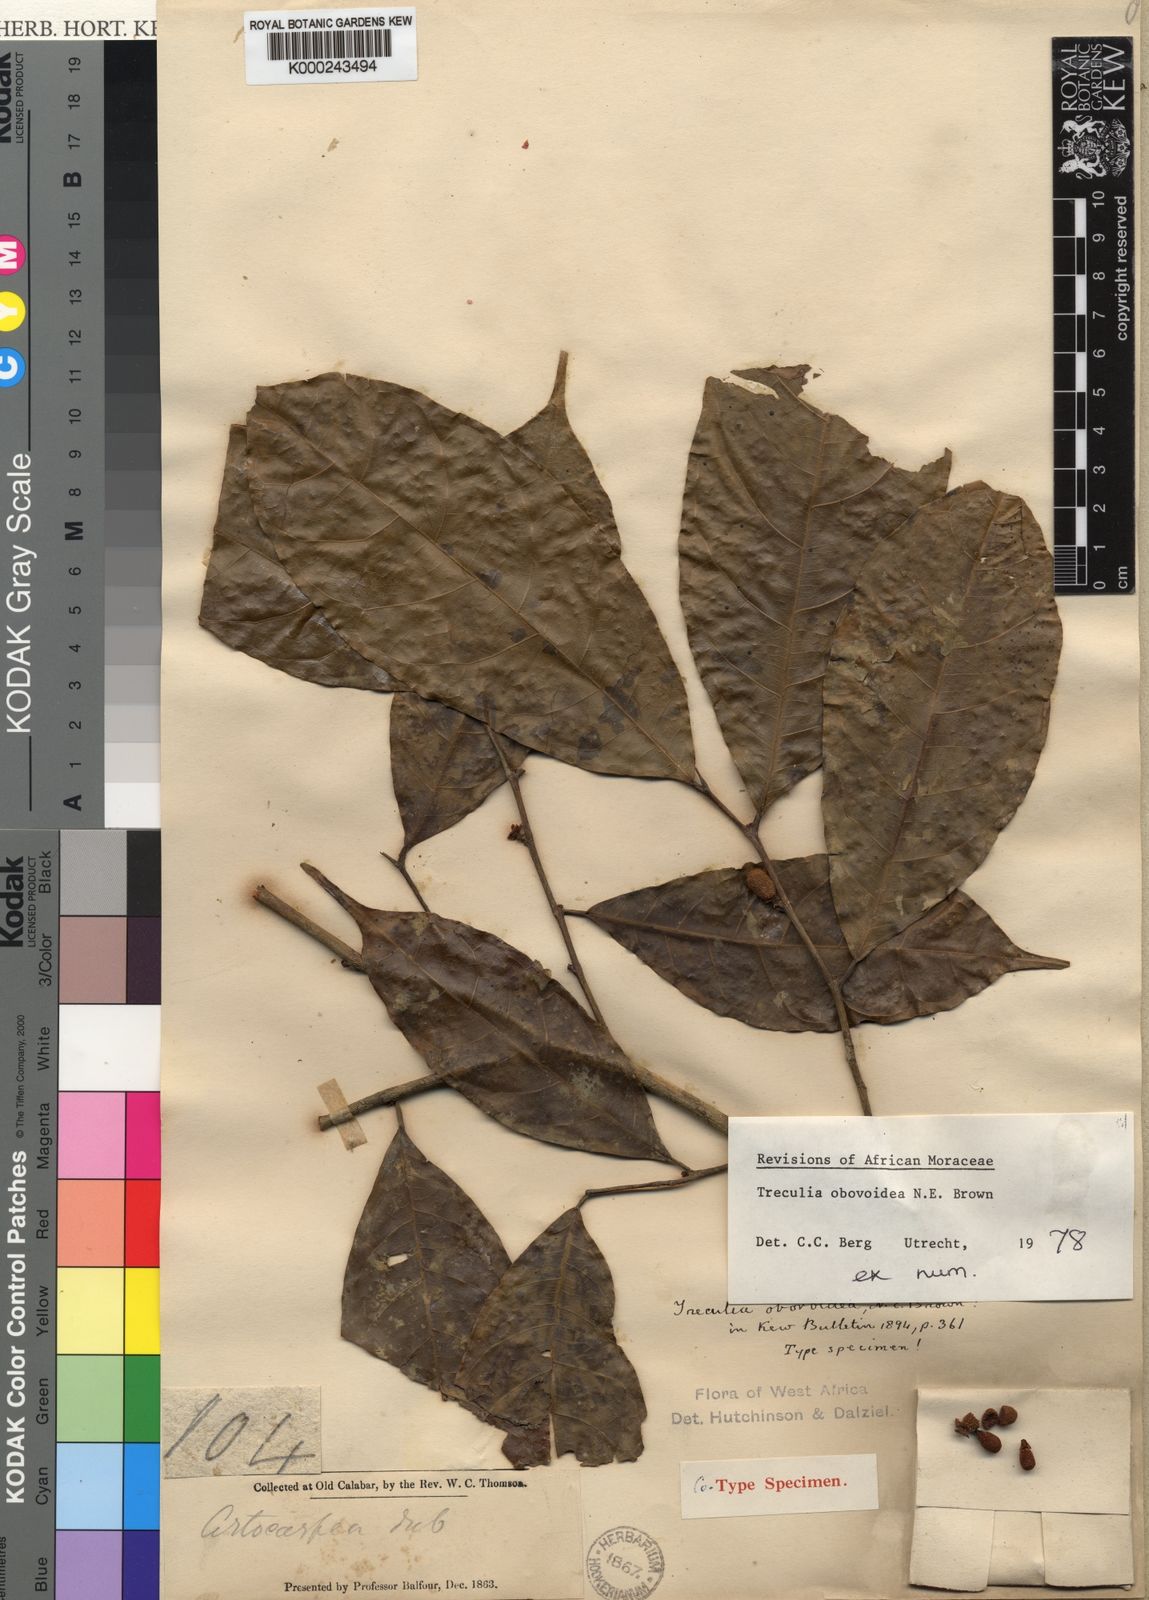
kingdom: Plantae
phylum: Tracheophyta
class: Magnoliopsida
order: Rosales
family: Moraceae
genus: Treculia
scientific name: Treculia obovoidea
